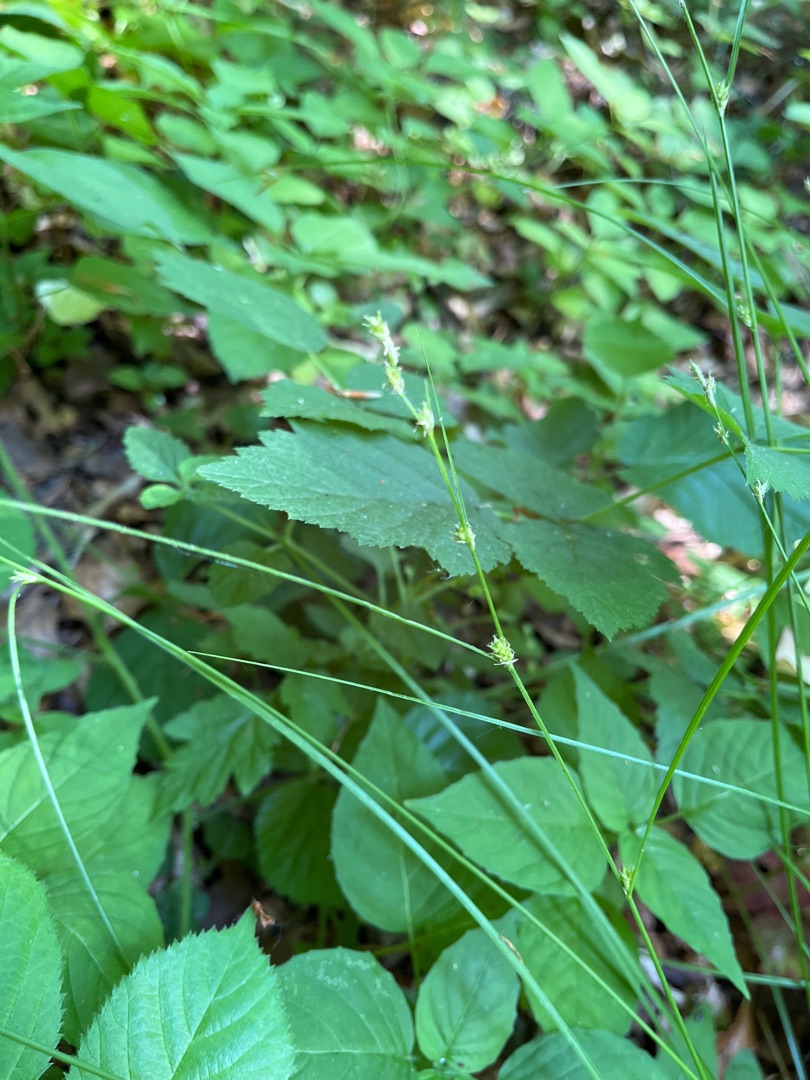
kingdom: Plantae
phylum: Tracheophyta
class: Liliopsida
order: Poales
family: Cyperaceae
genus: Carex
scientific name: Carex remota
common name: Akselblomstret star
